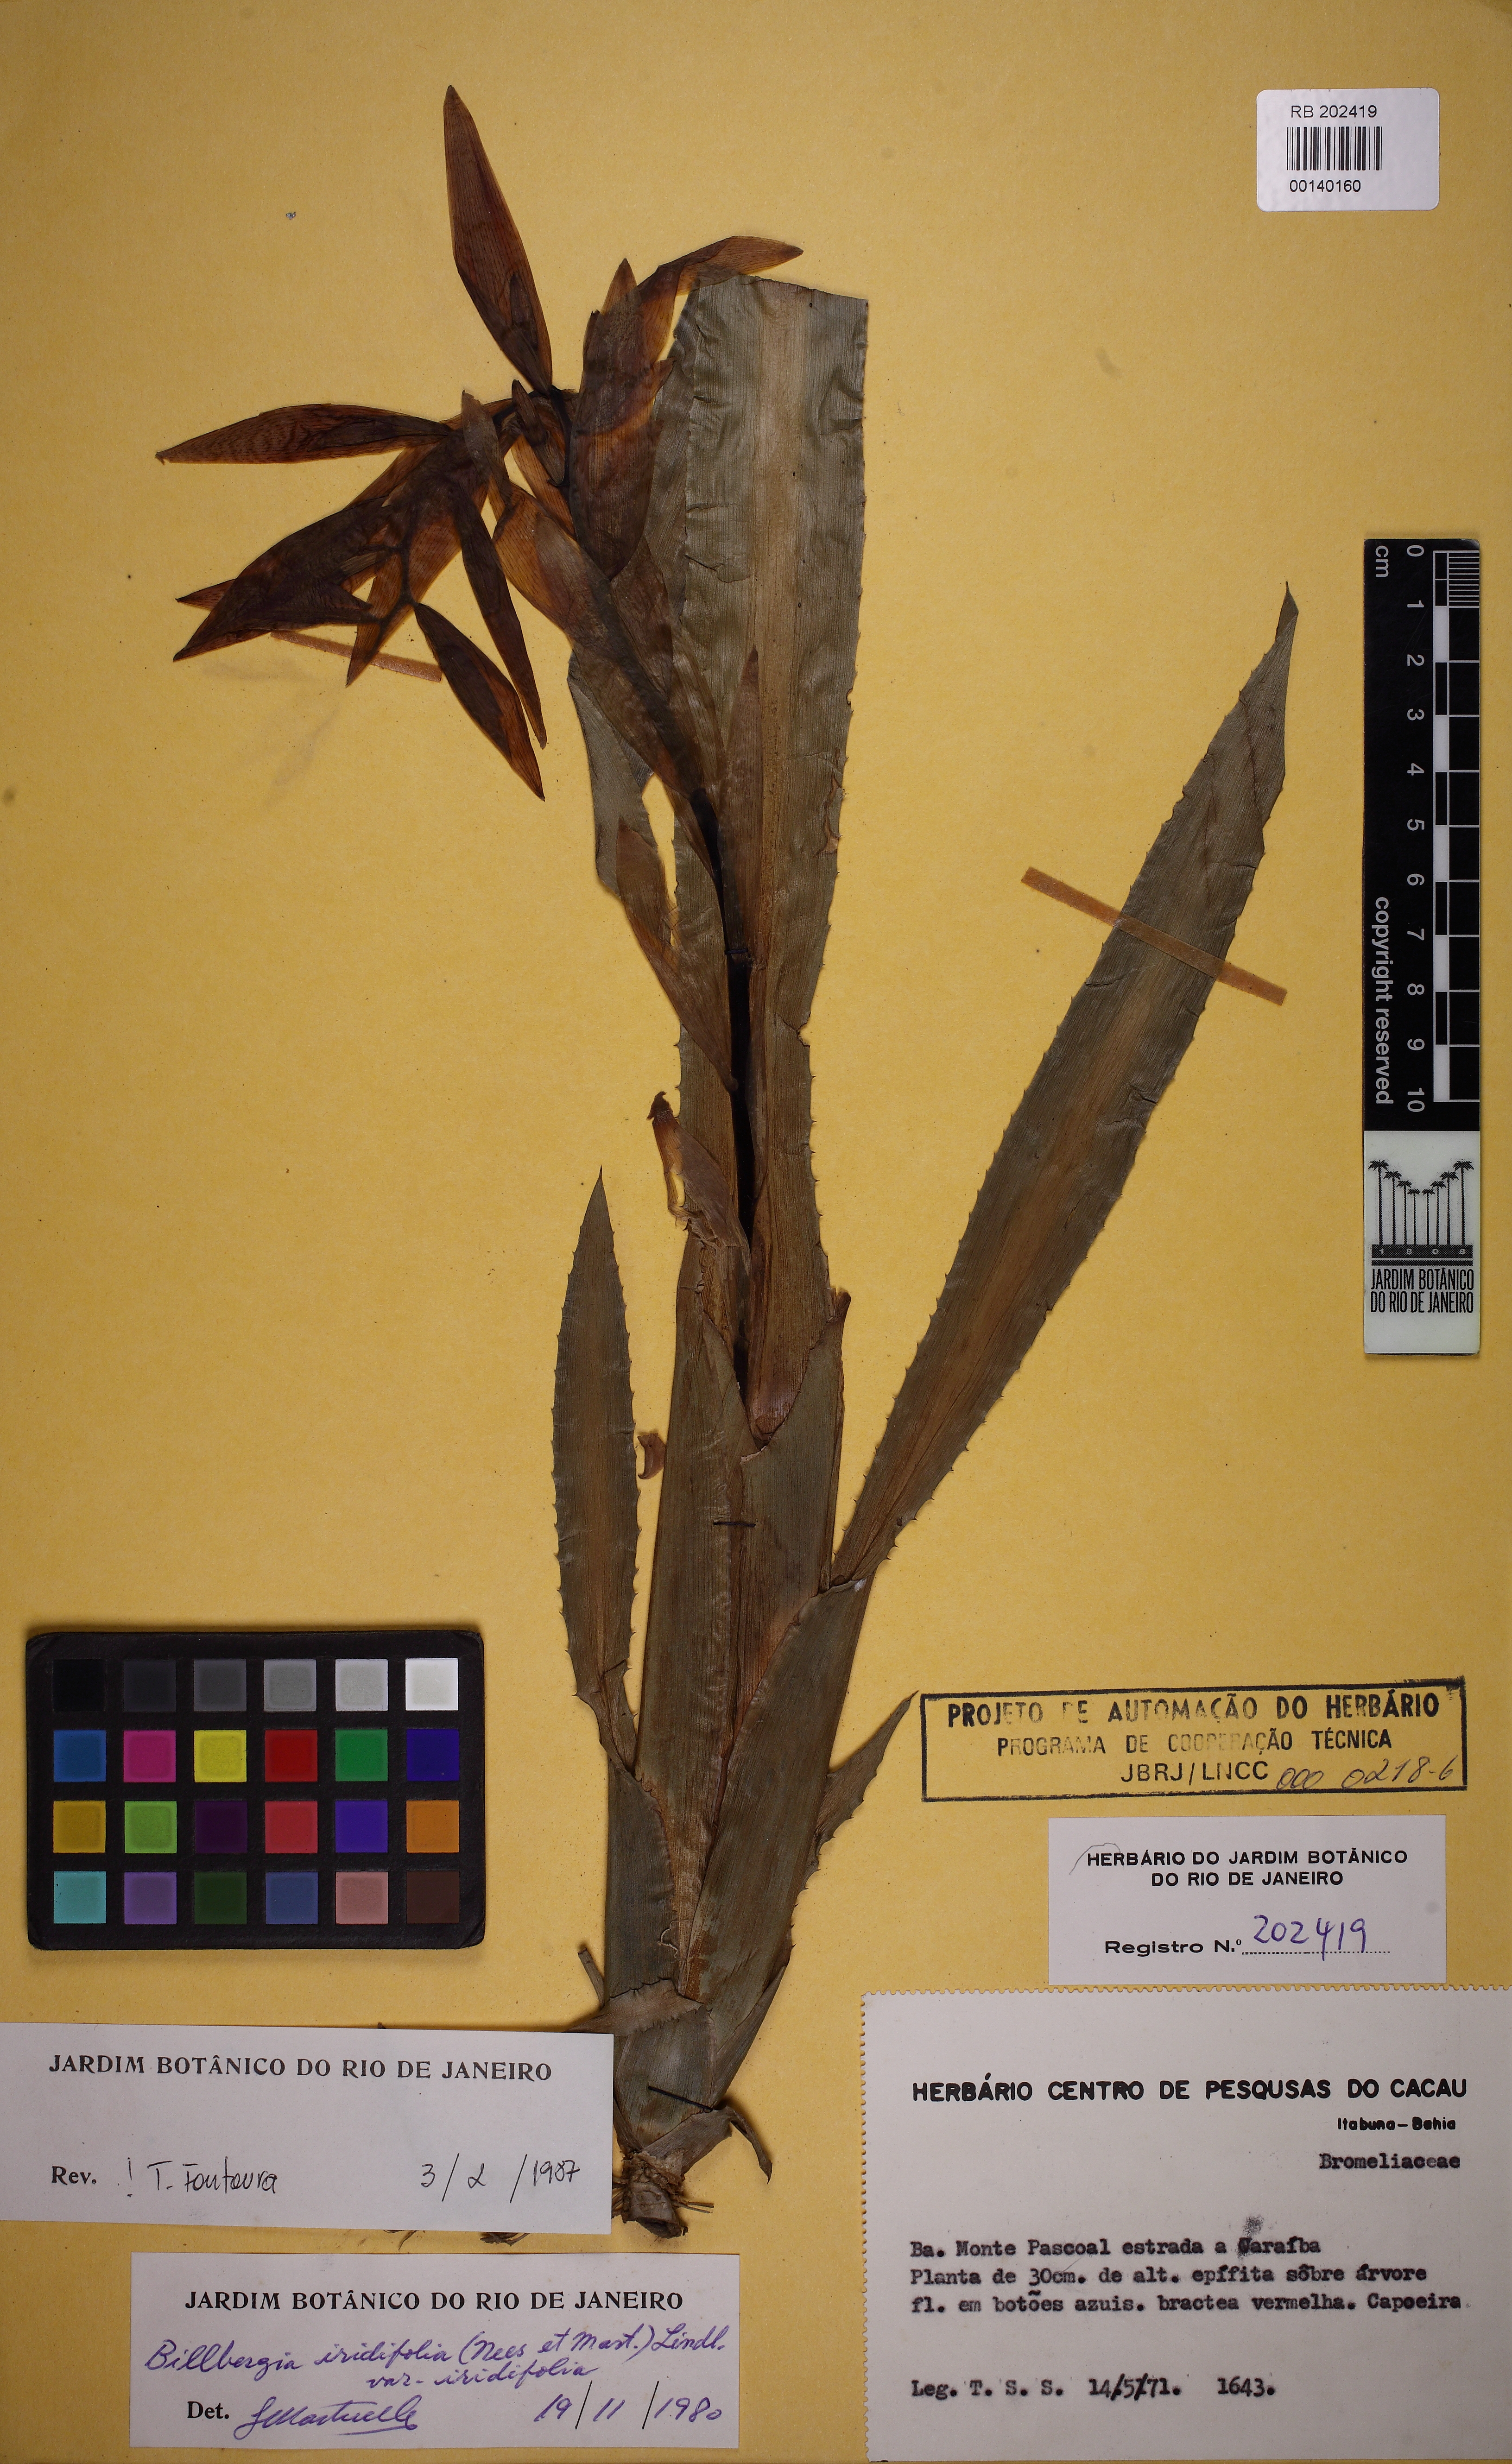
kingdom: Plantae
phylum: Tracheophyta
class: Liliopsida
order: Poales
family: Bromeliaceae
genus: Billbergia
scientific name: Billbergia iridifolia
